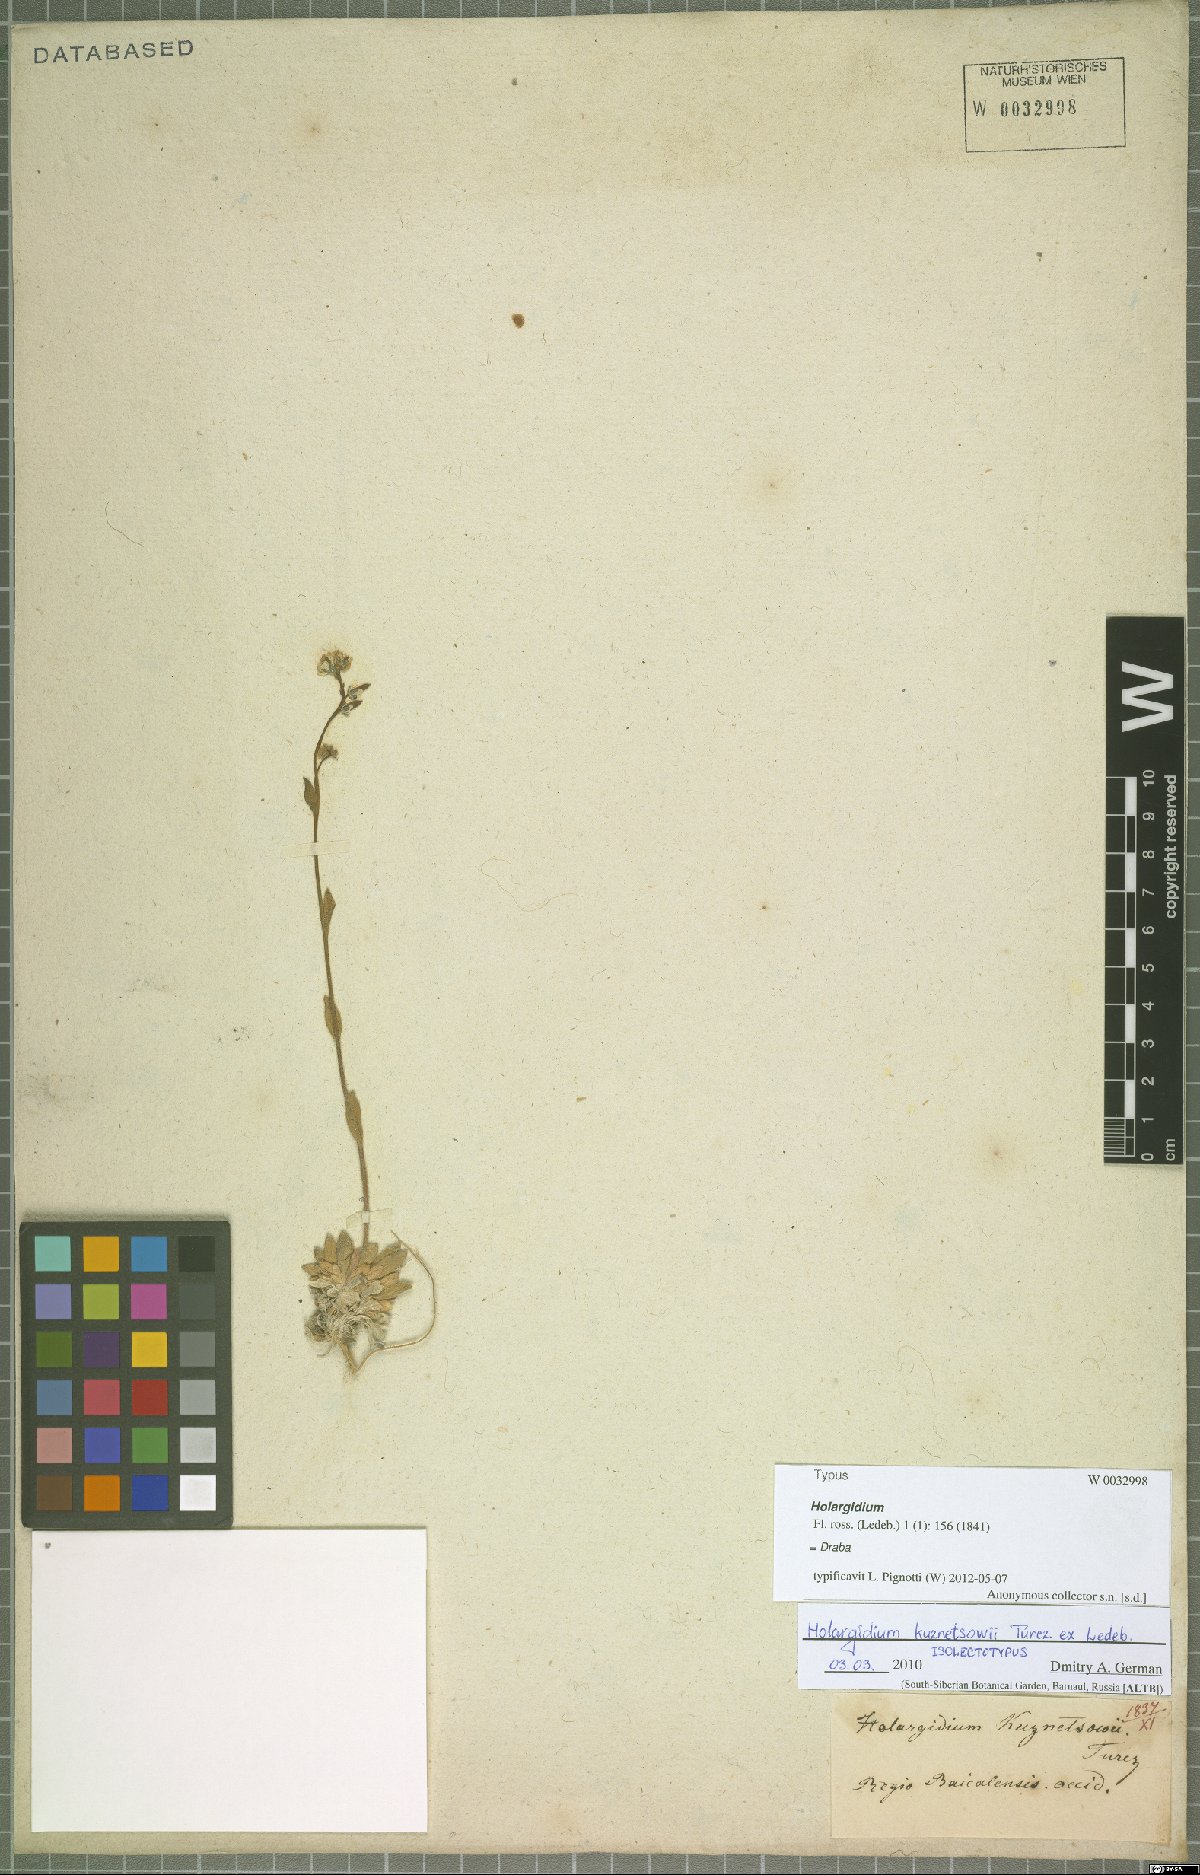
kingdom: Plantae
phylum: Tracheophyta
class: Magnoliopsida
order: Brassicales
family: Brassicaceae
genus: Draba
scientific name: Draba kusnetzowii
